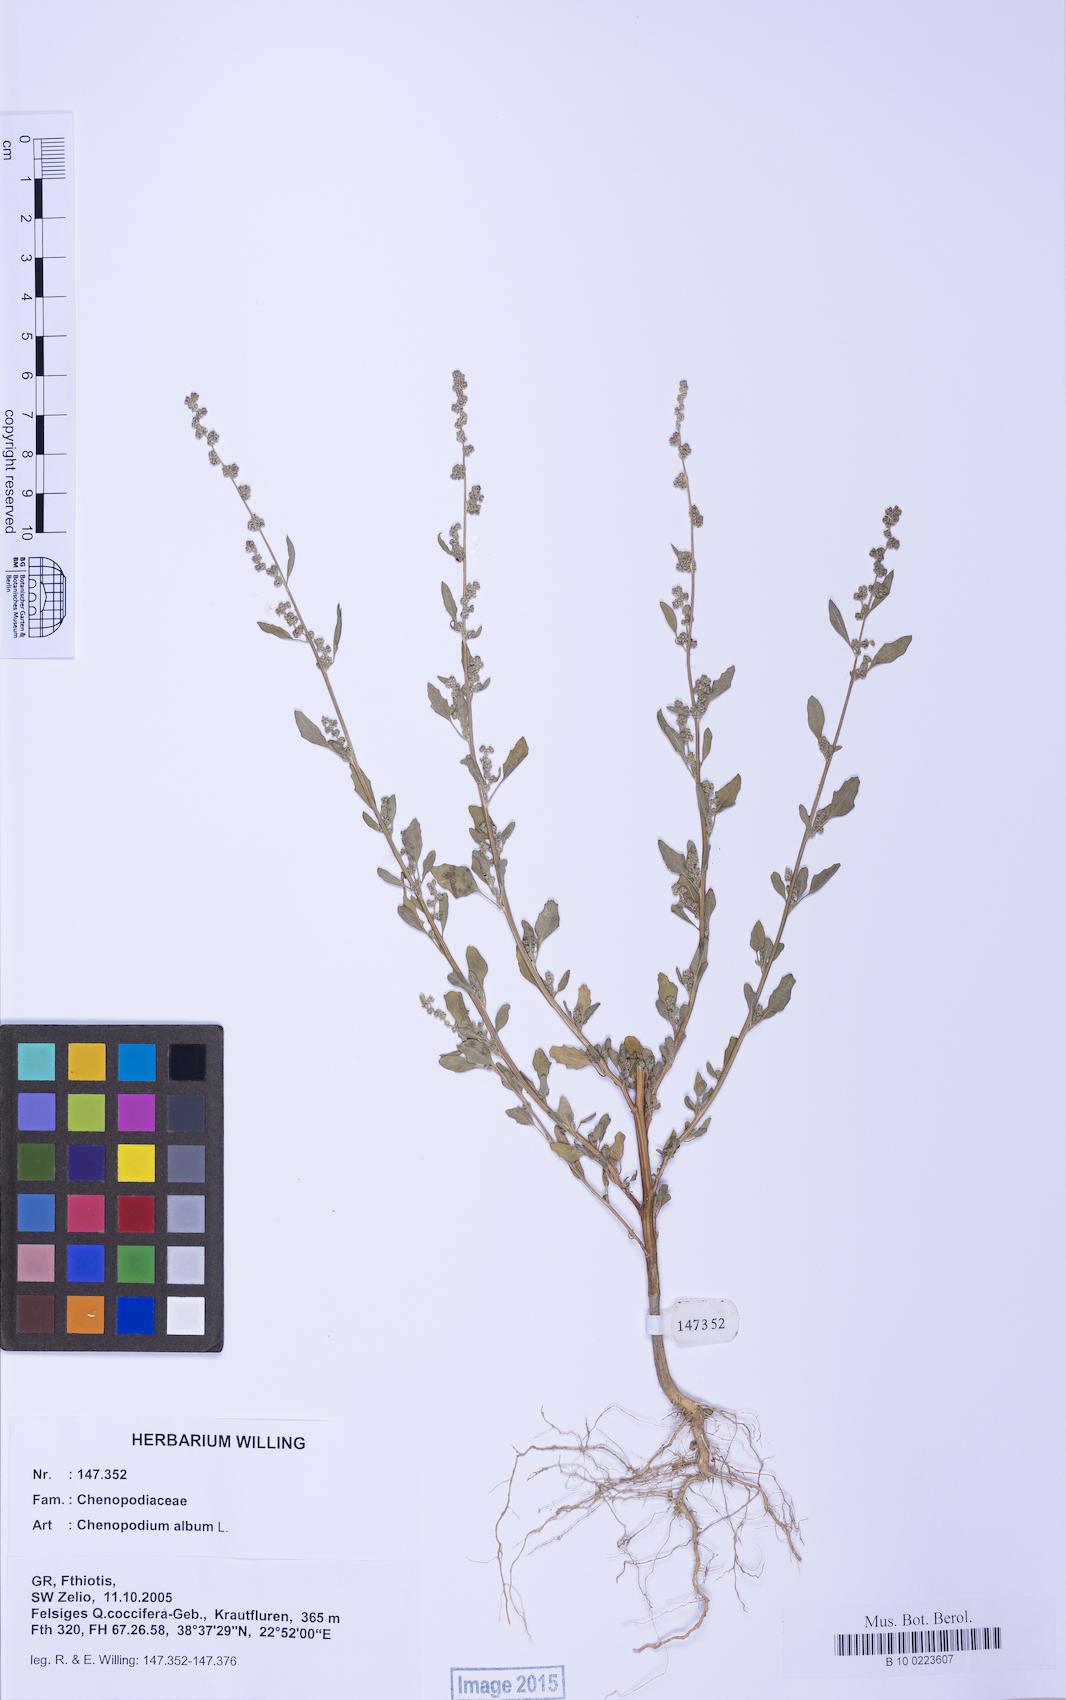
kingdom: Plantae
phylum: Tracheophyta
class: Magnoliopsida
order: Caryophyllales
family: Amaranthaceae
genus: Chenopodium
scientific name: Chenopodium album
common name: Fat-hen
